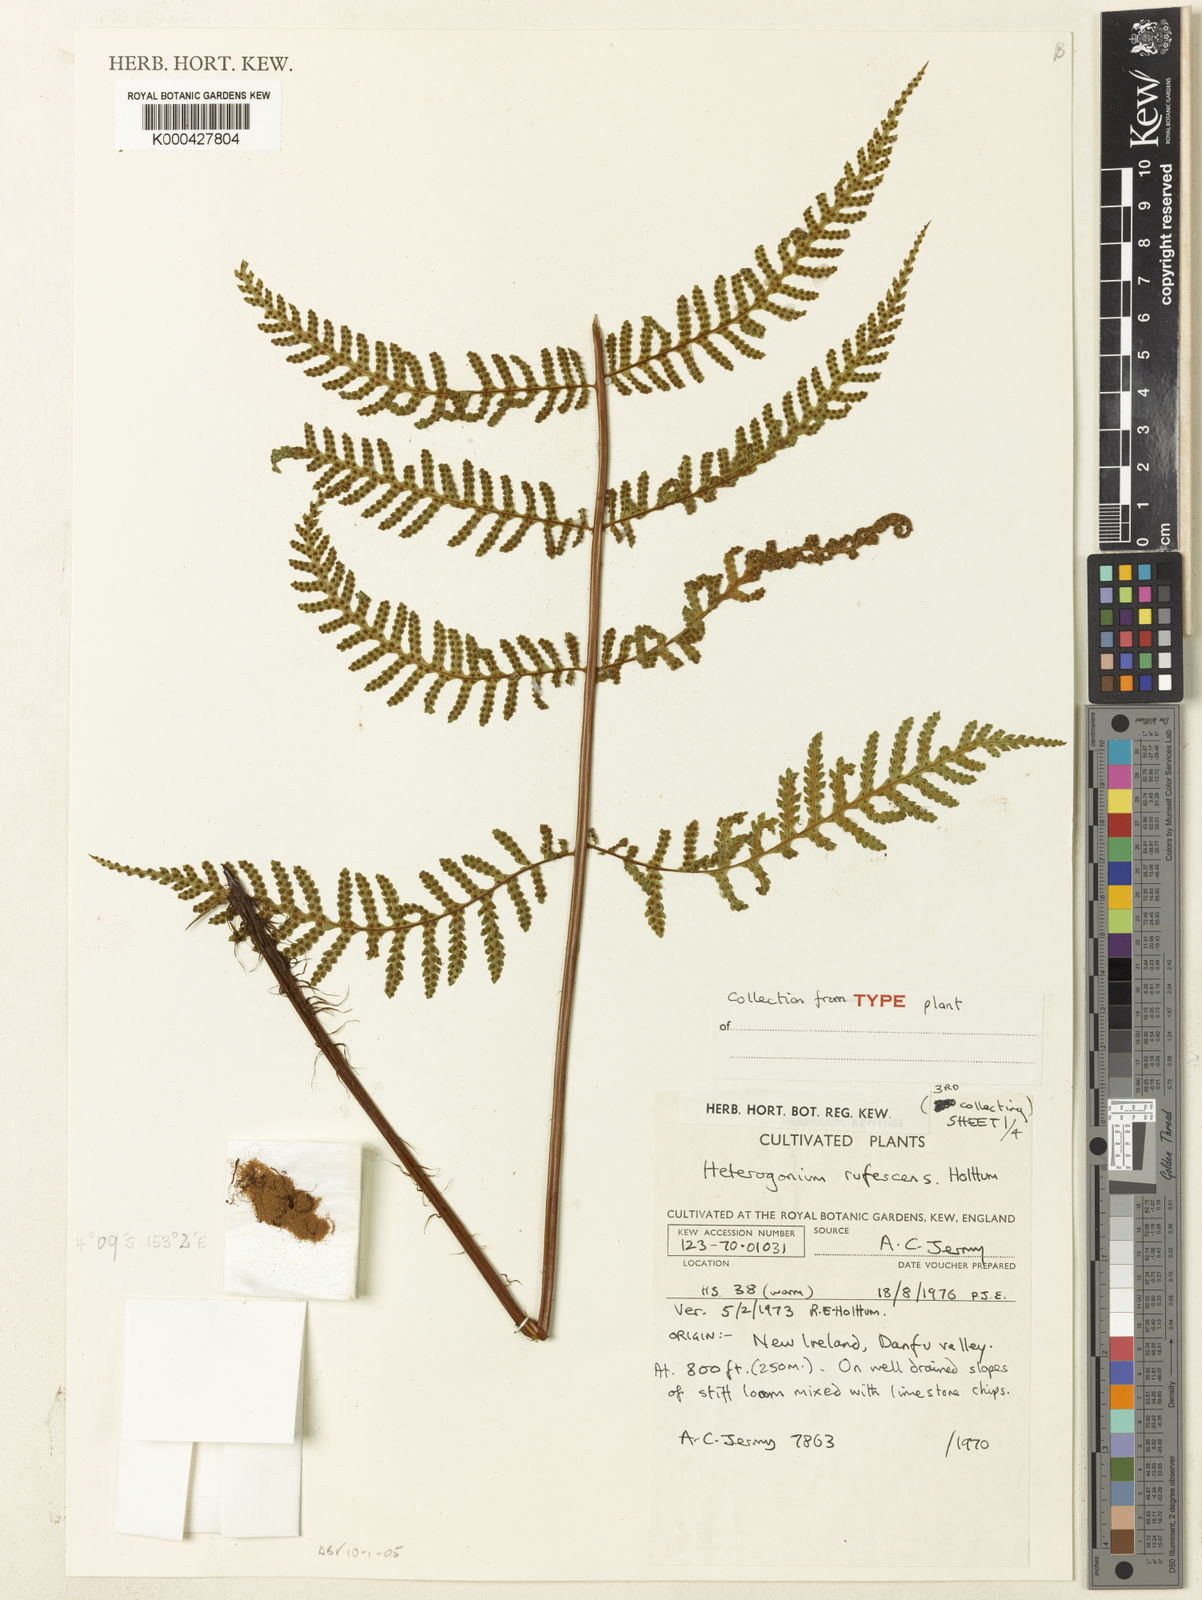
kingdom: Plantae
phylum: Tracheophyta
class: Polypodiopsida
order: Polypodiales
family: Tectariaceae
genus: Tectaria
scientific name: Tectaria jermyi
